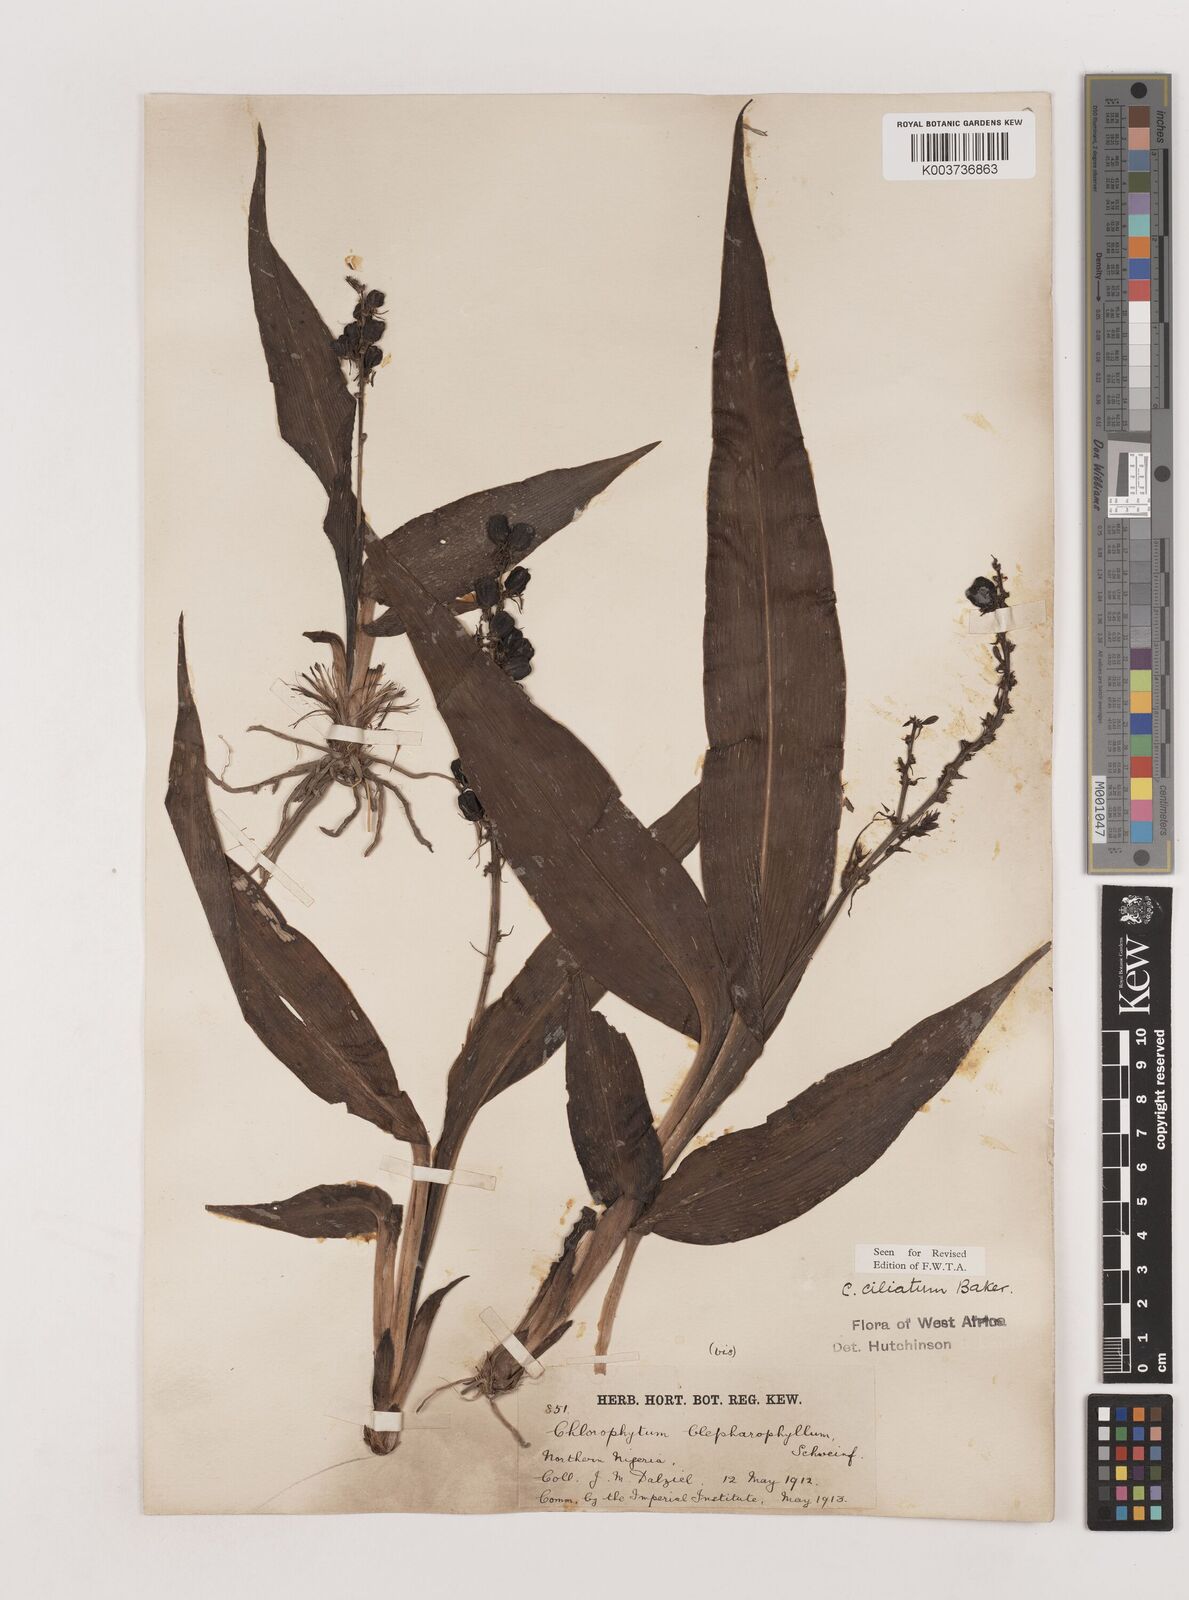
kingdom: Plantae
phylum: Tracheophyta
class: Liliopsida
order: Asparagales
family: Asparagaceae
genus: Chlorophytum
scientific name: Chlorophytum blepharophyllum
